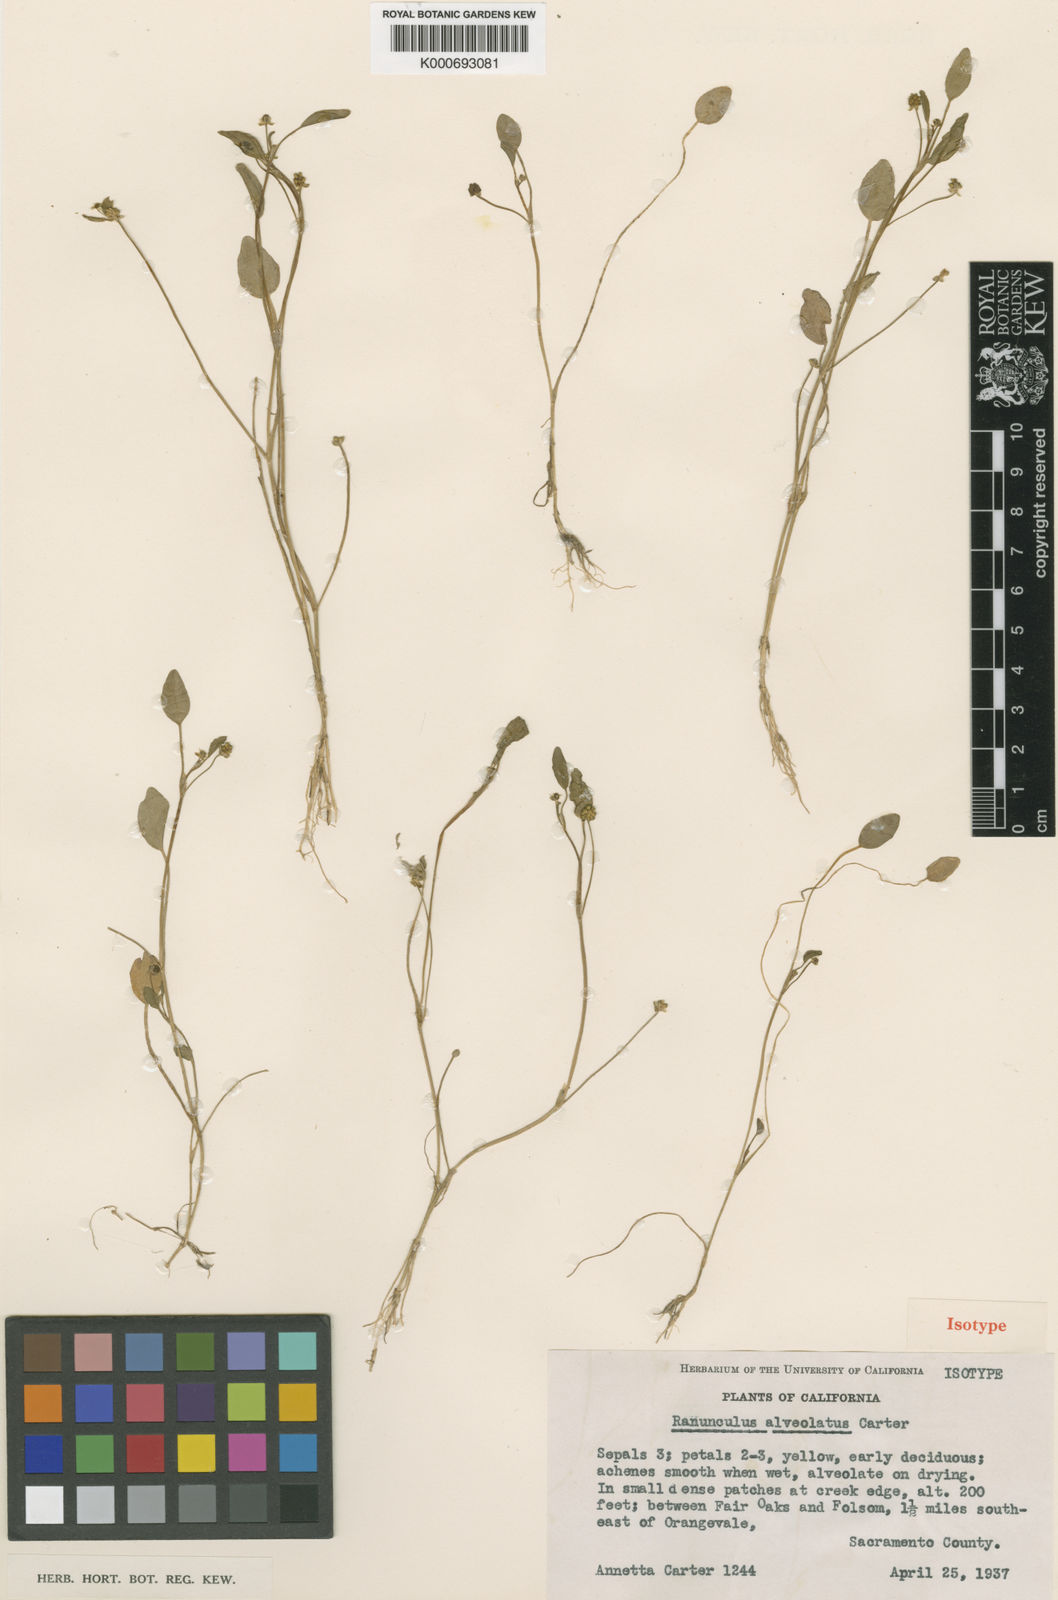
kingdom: Plantae
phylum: Tracheophyta
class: Magnoliopsida
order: Ranunculales
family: Ranunculaceae
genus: Ranunculus
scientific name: Ranunculus bonariensis
